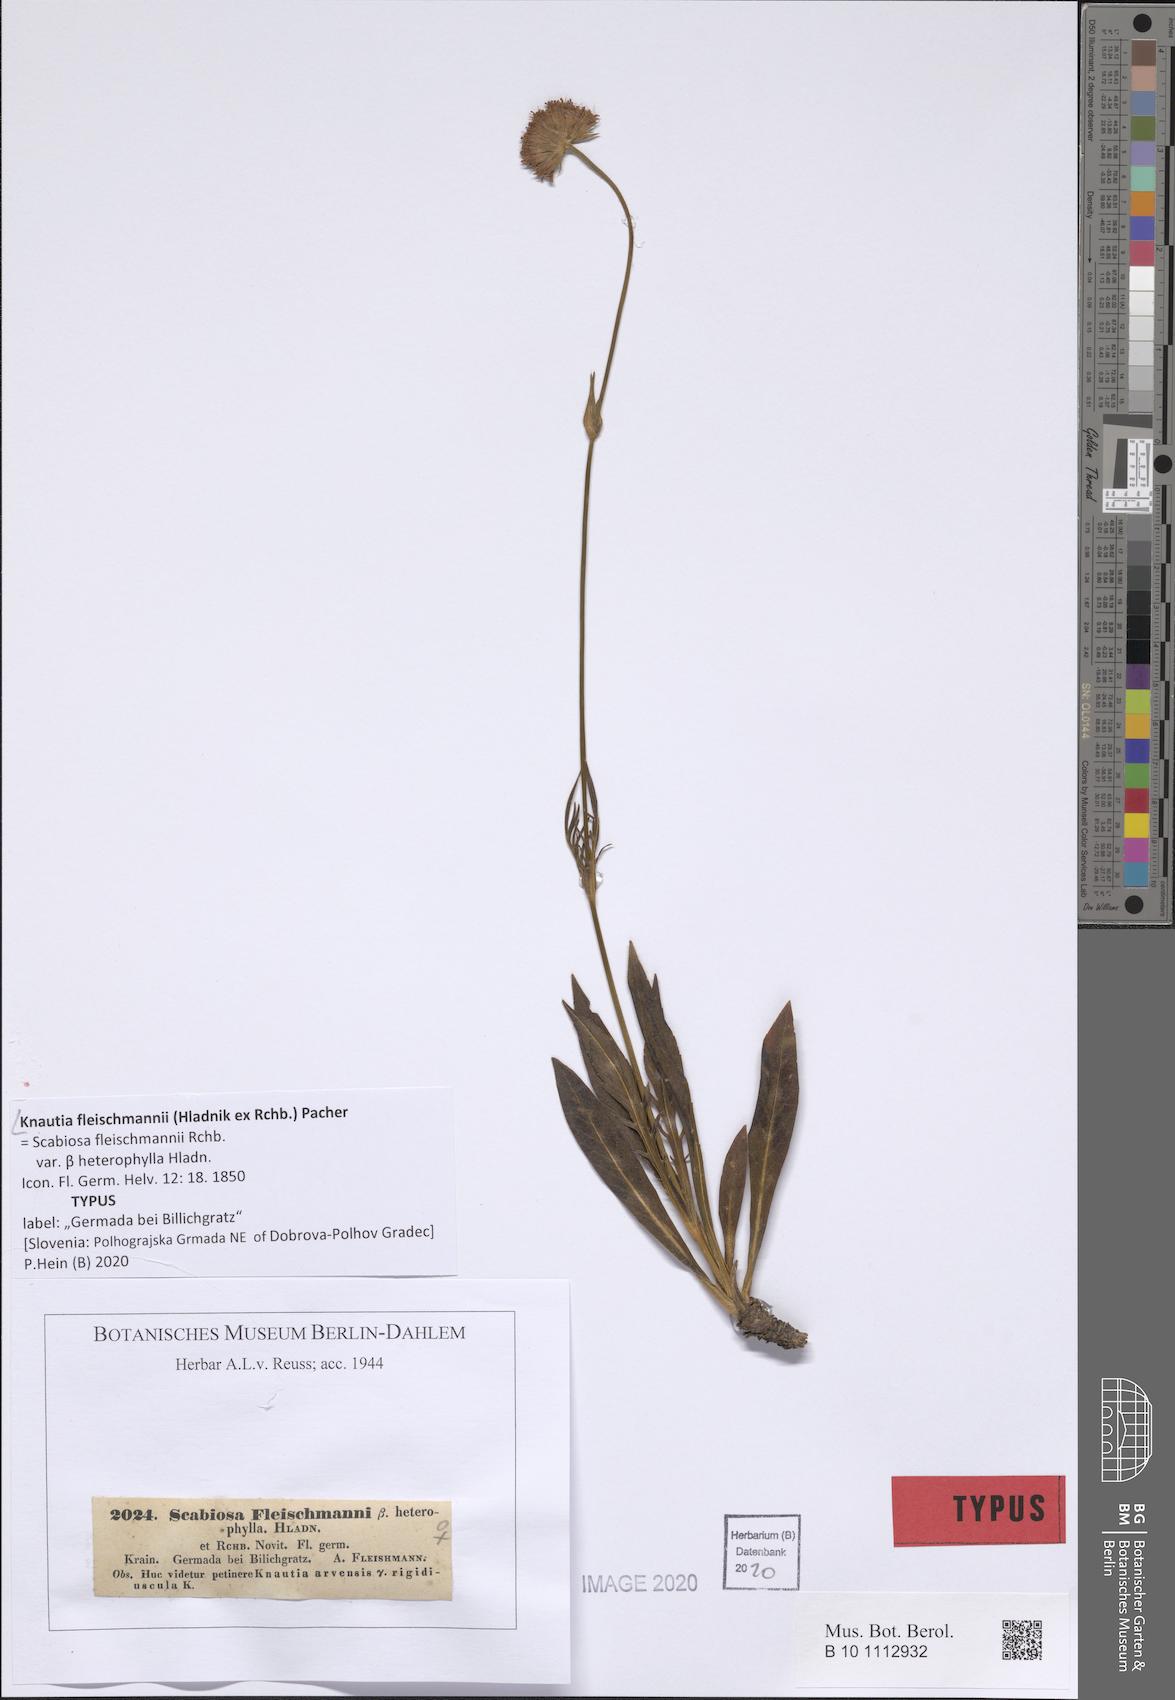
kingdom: Plantae
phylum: Tracheophyta
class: Magnoliopsida
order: Dipsacales
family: Caprifoliaceae
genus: Knautia
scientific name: Knautia fleischmannii
